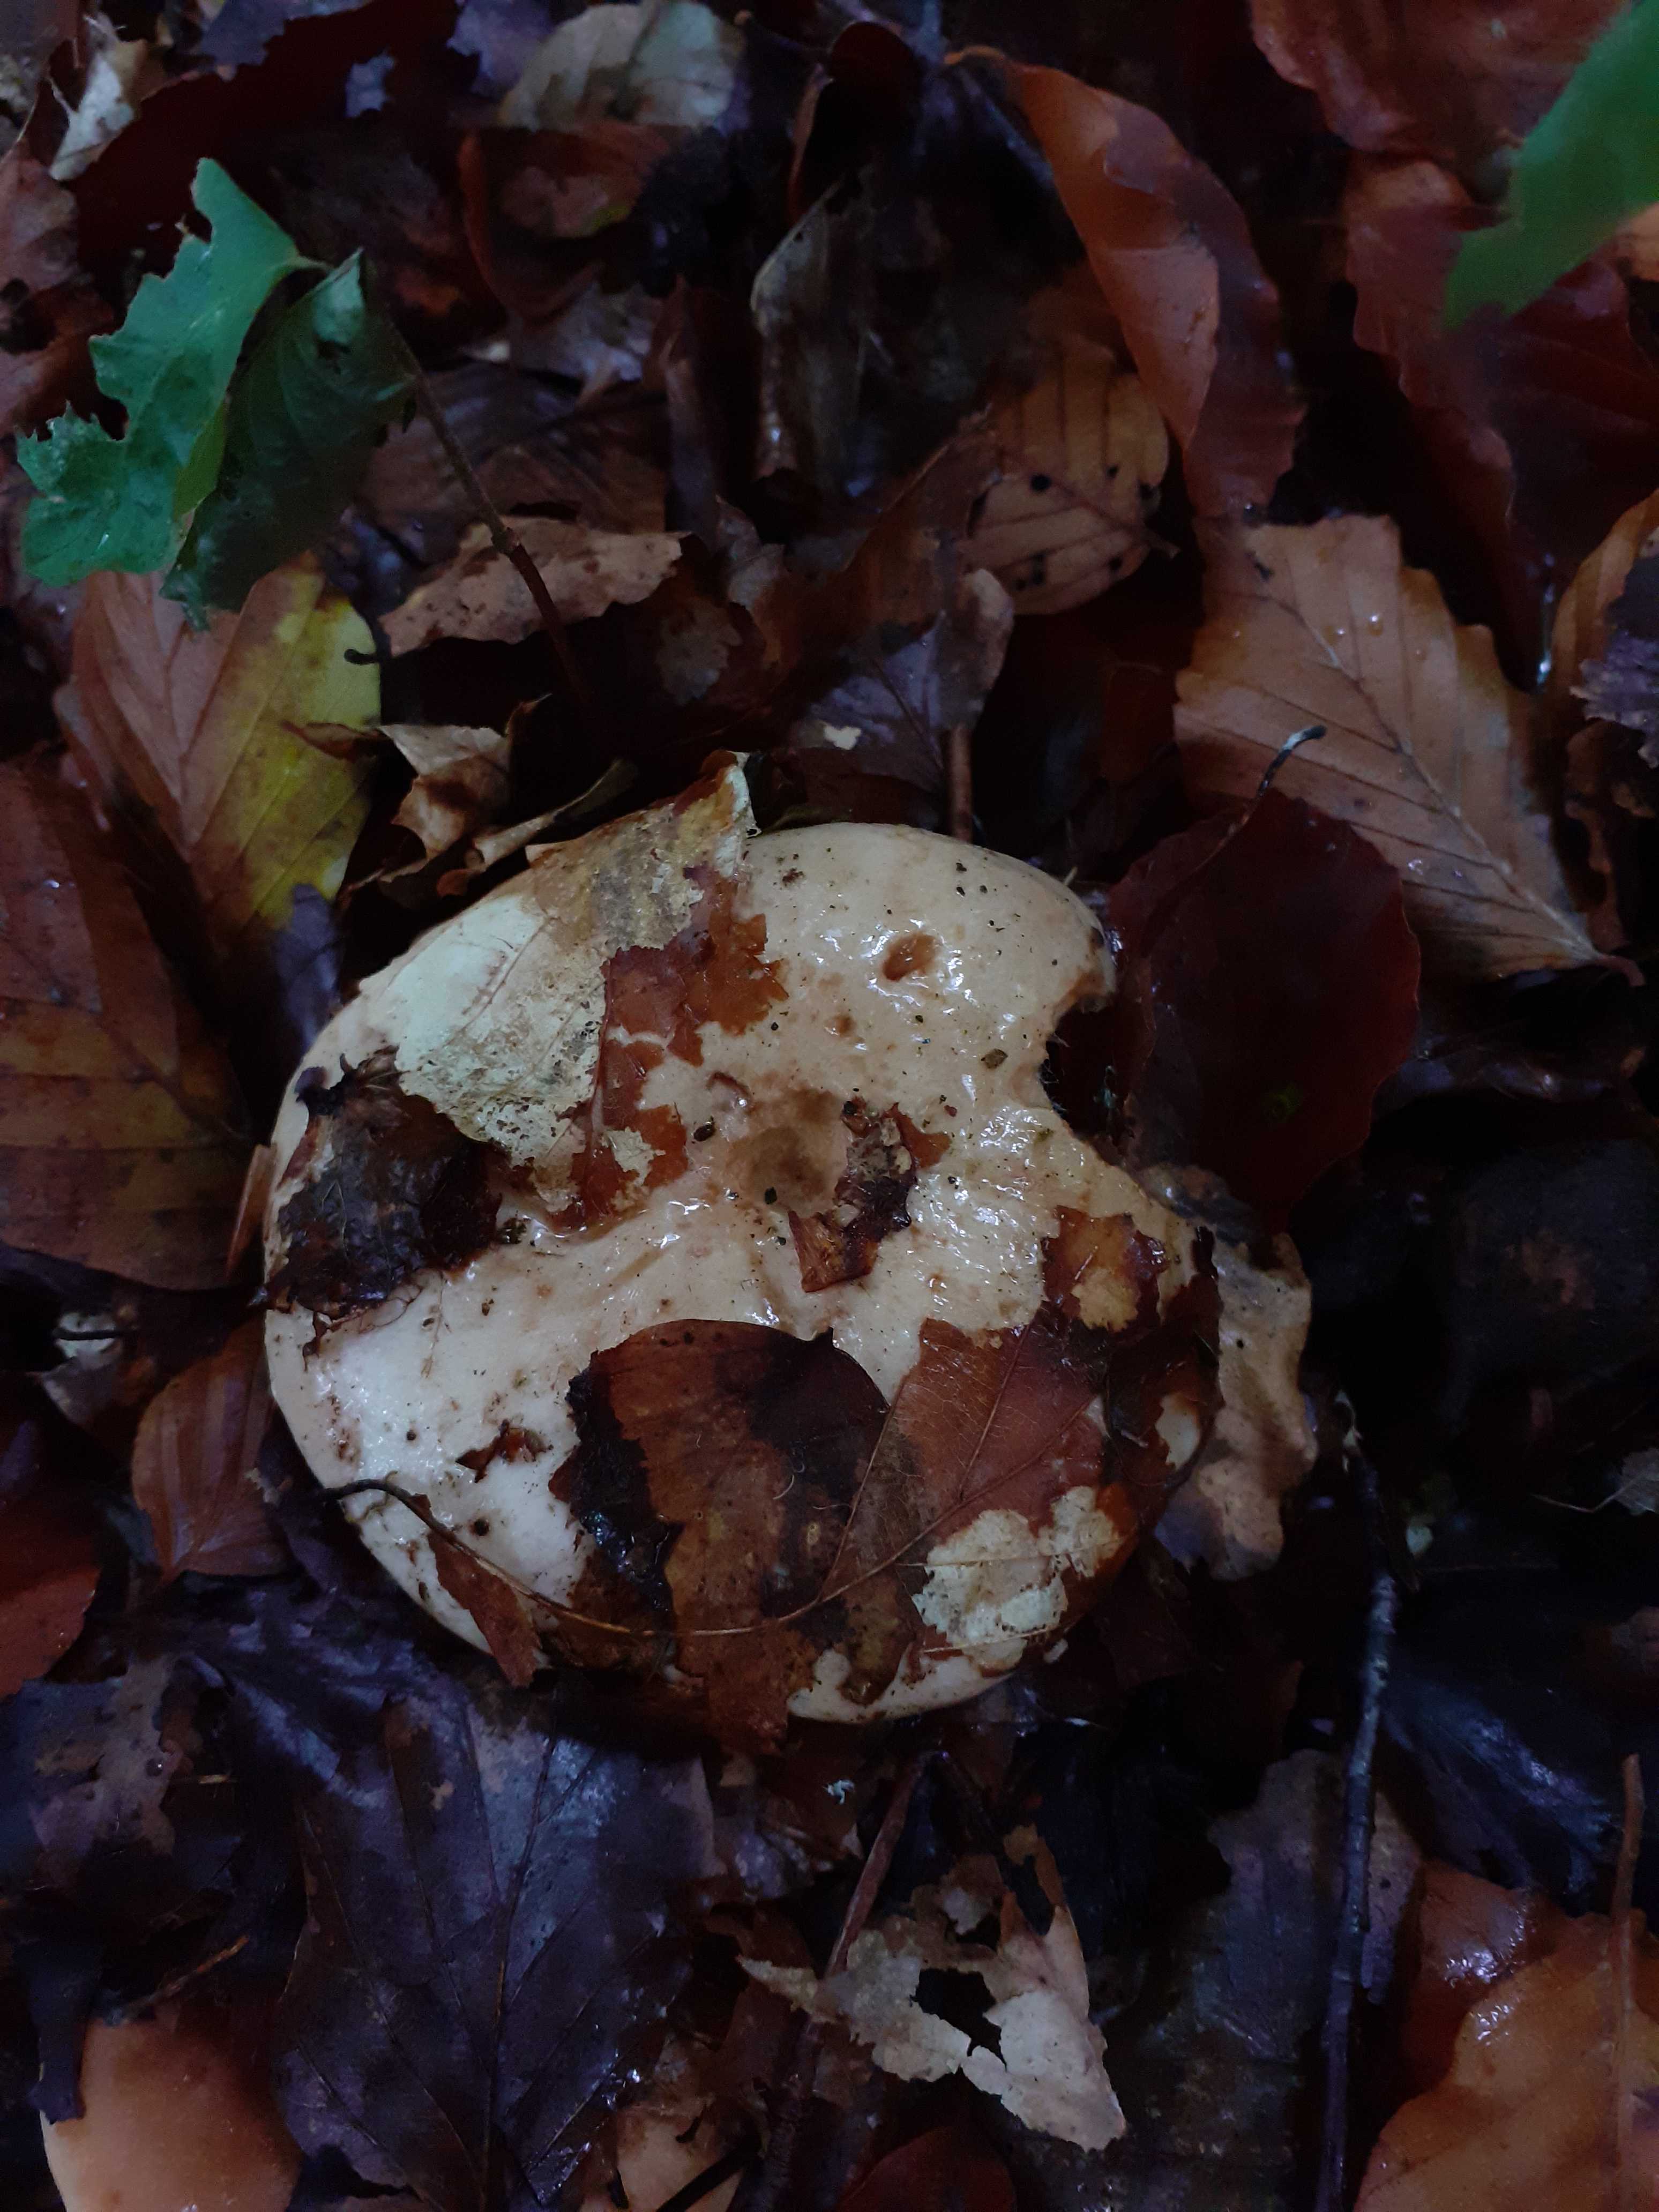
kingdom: Fungi
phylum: Basidiomycota
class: Agaricomycetes
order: Russulales
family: Russulaceae
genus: Lactarius
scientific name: Lactarius pallidus
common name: bleg mælkehat
